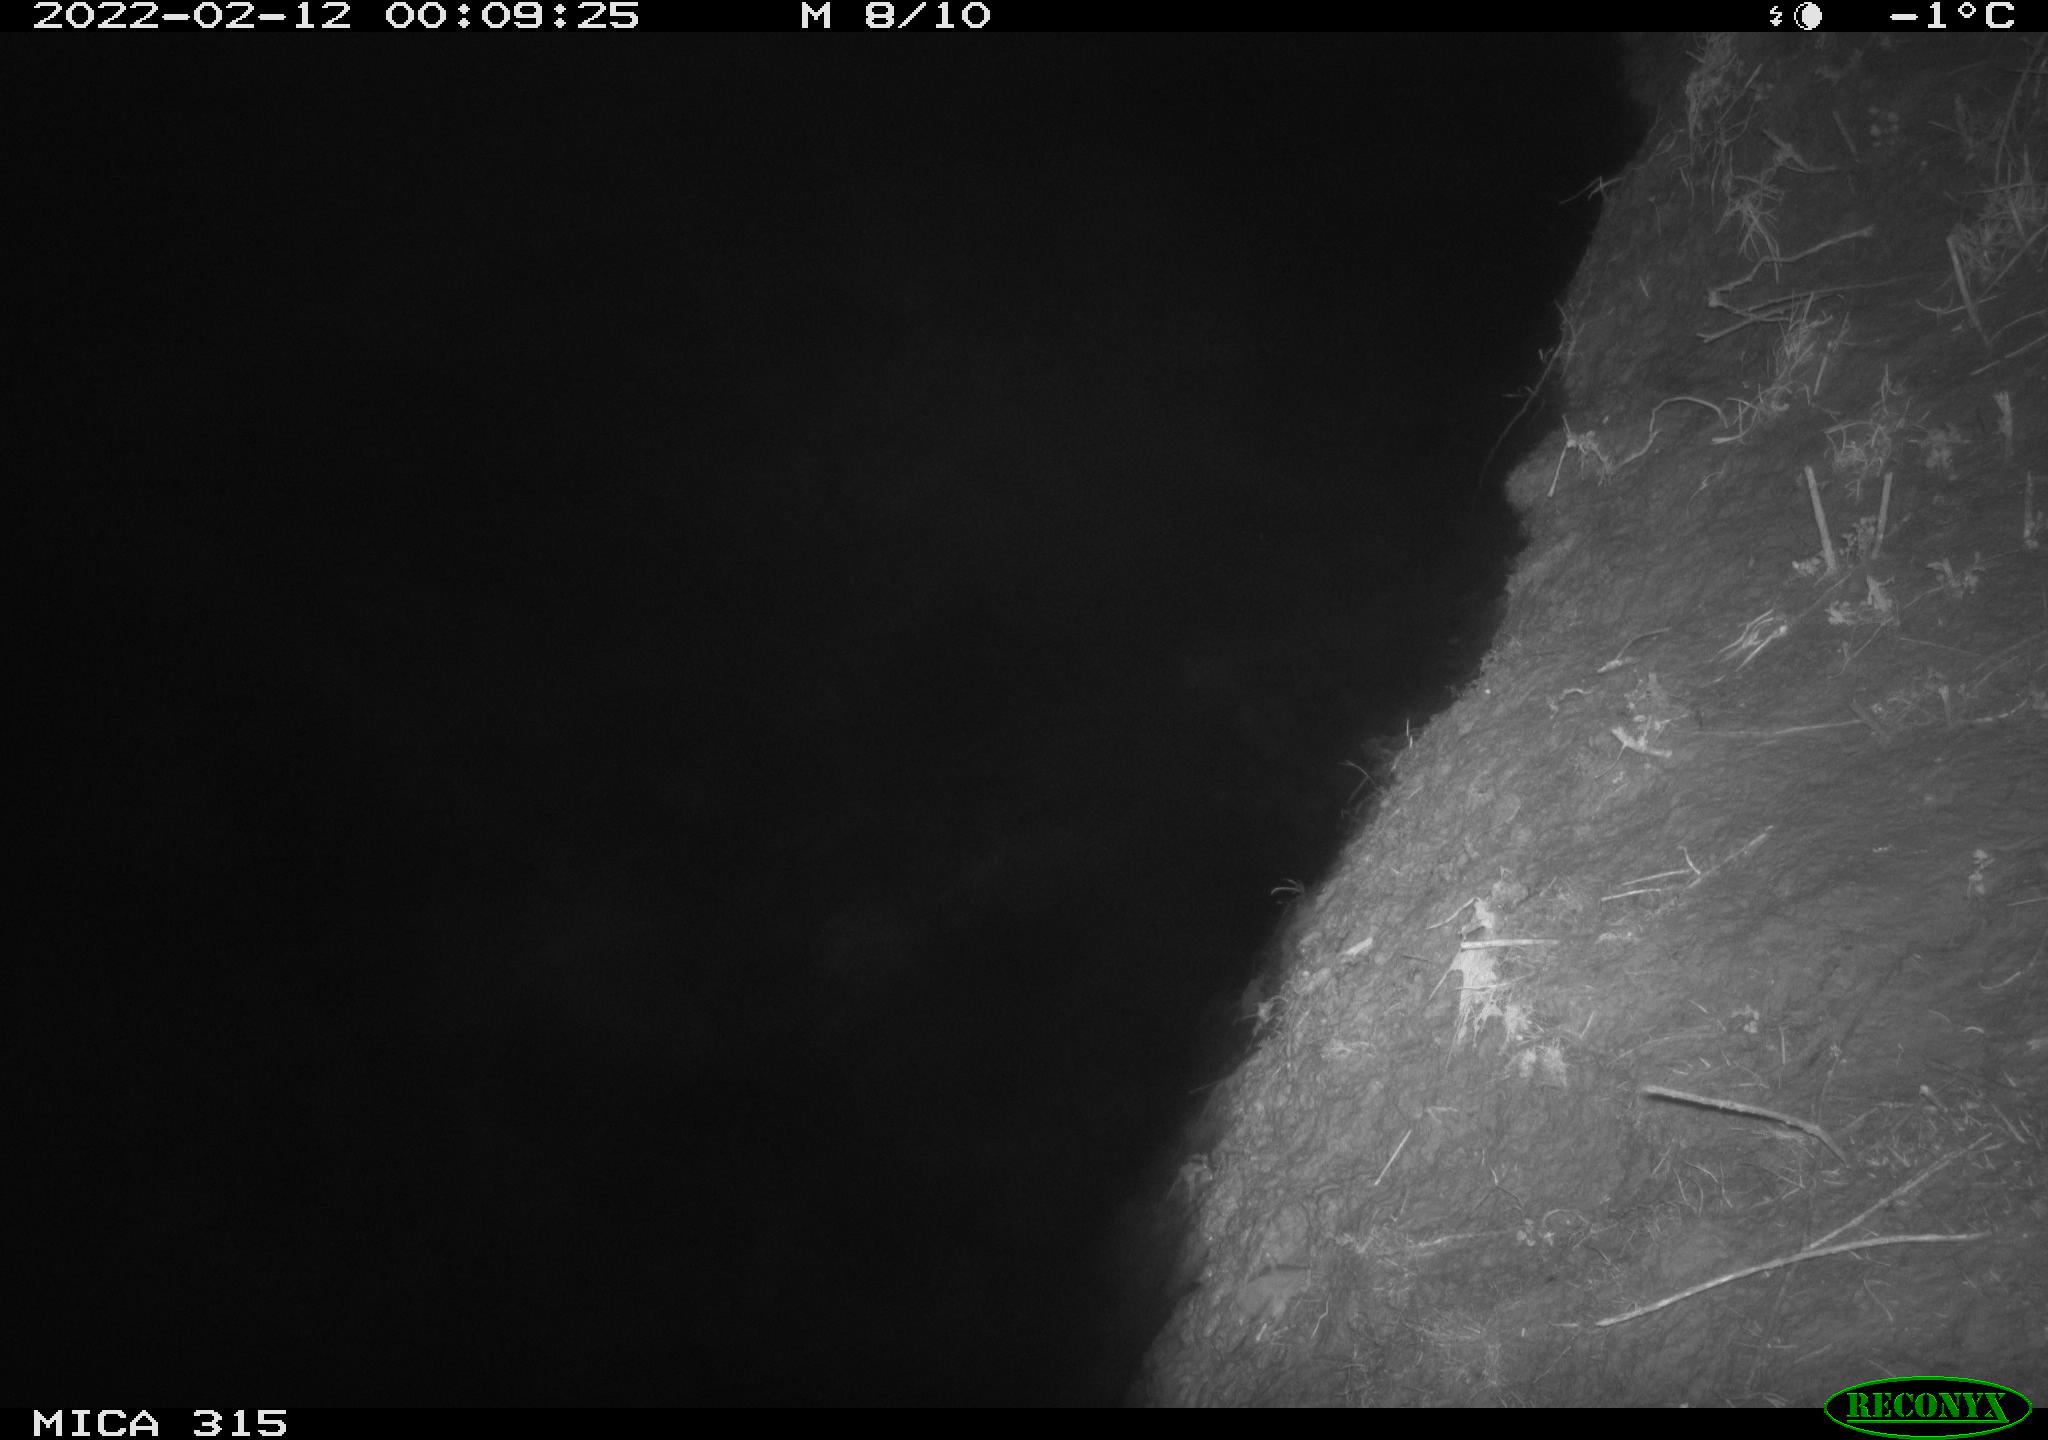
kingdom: Animalia
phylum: Chordata
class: Mammalia
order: Rodentia
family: Muridae
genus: Rattus
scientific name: Rattus norvegicus
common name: Brown rat
